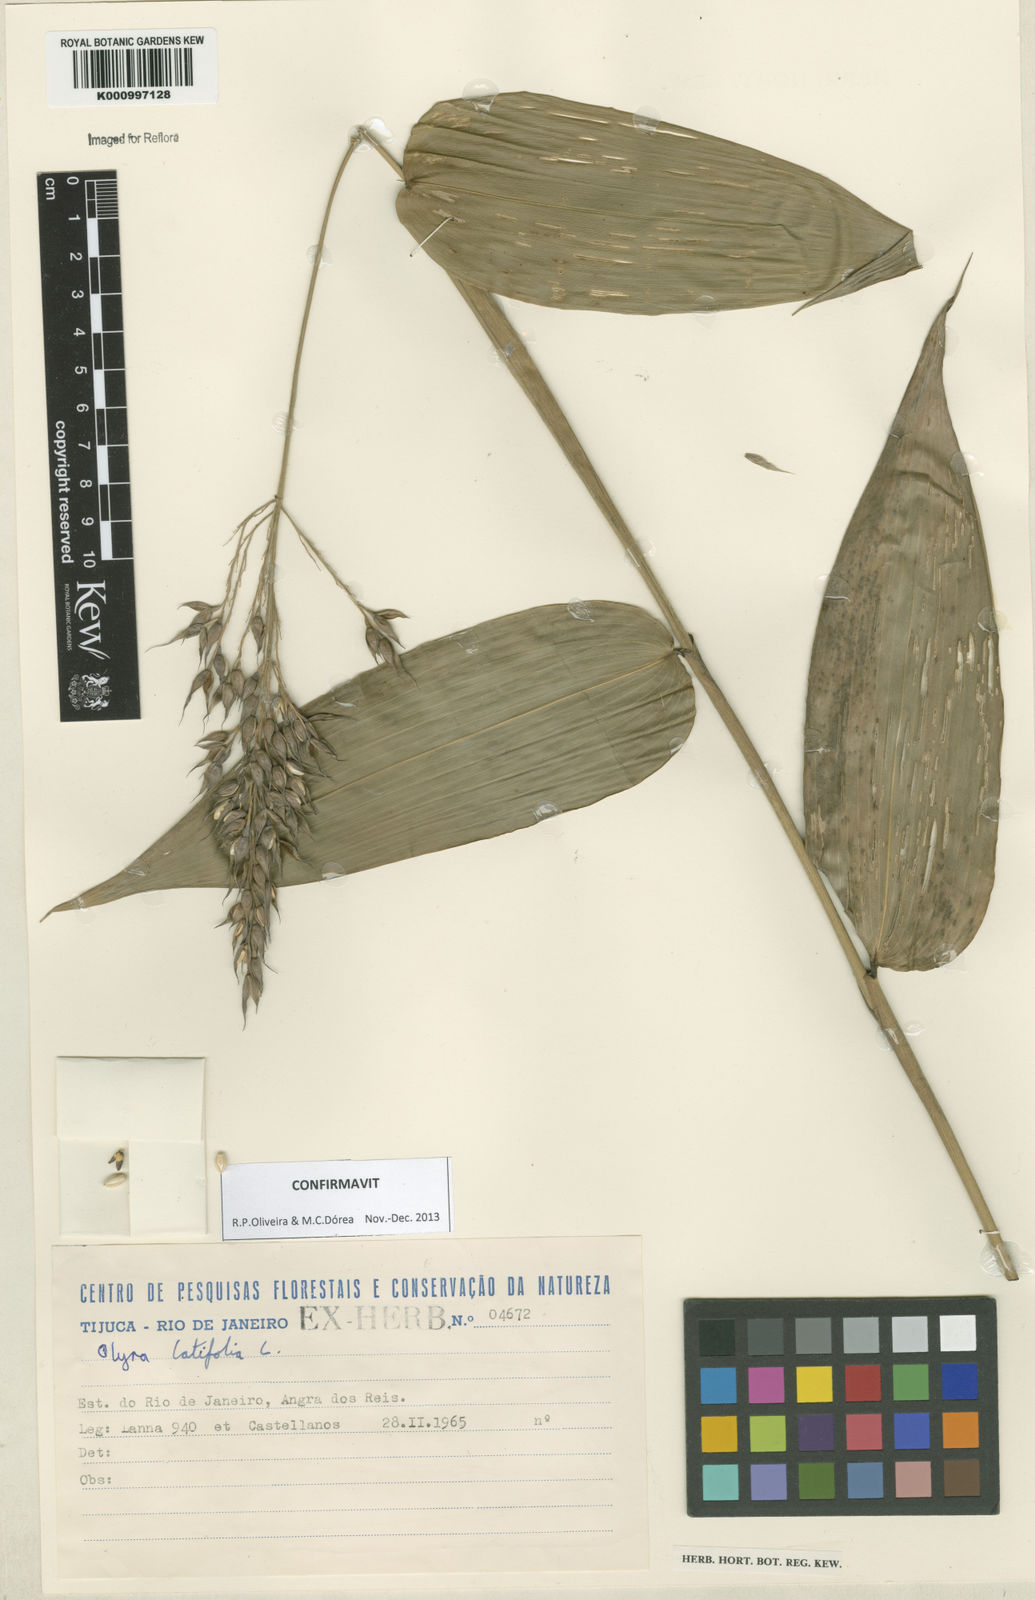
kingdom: Plantae
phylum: Tracheophyta
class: Liliopsida
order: Poales
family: Poaceae
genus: Olyra
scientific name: Olyra latifolia
